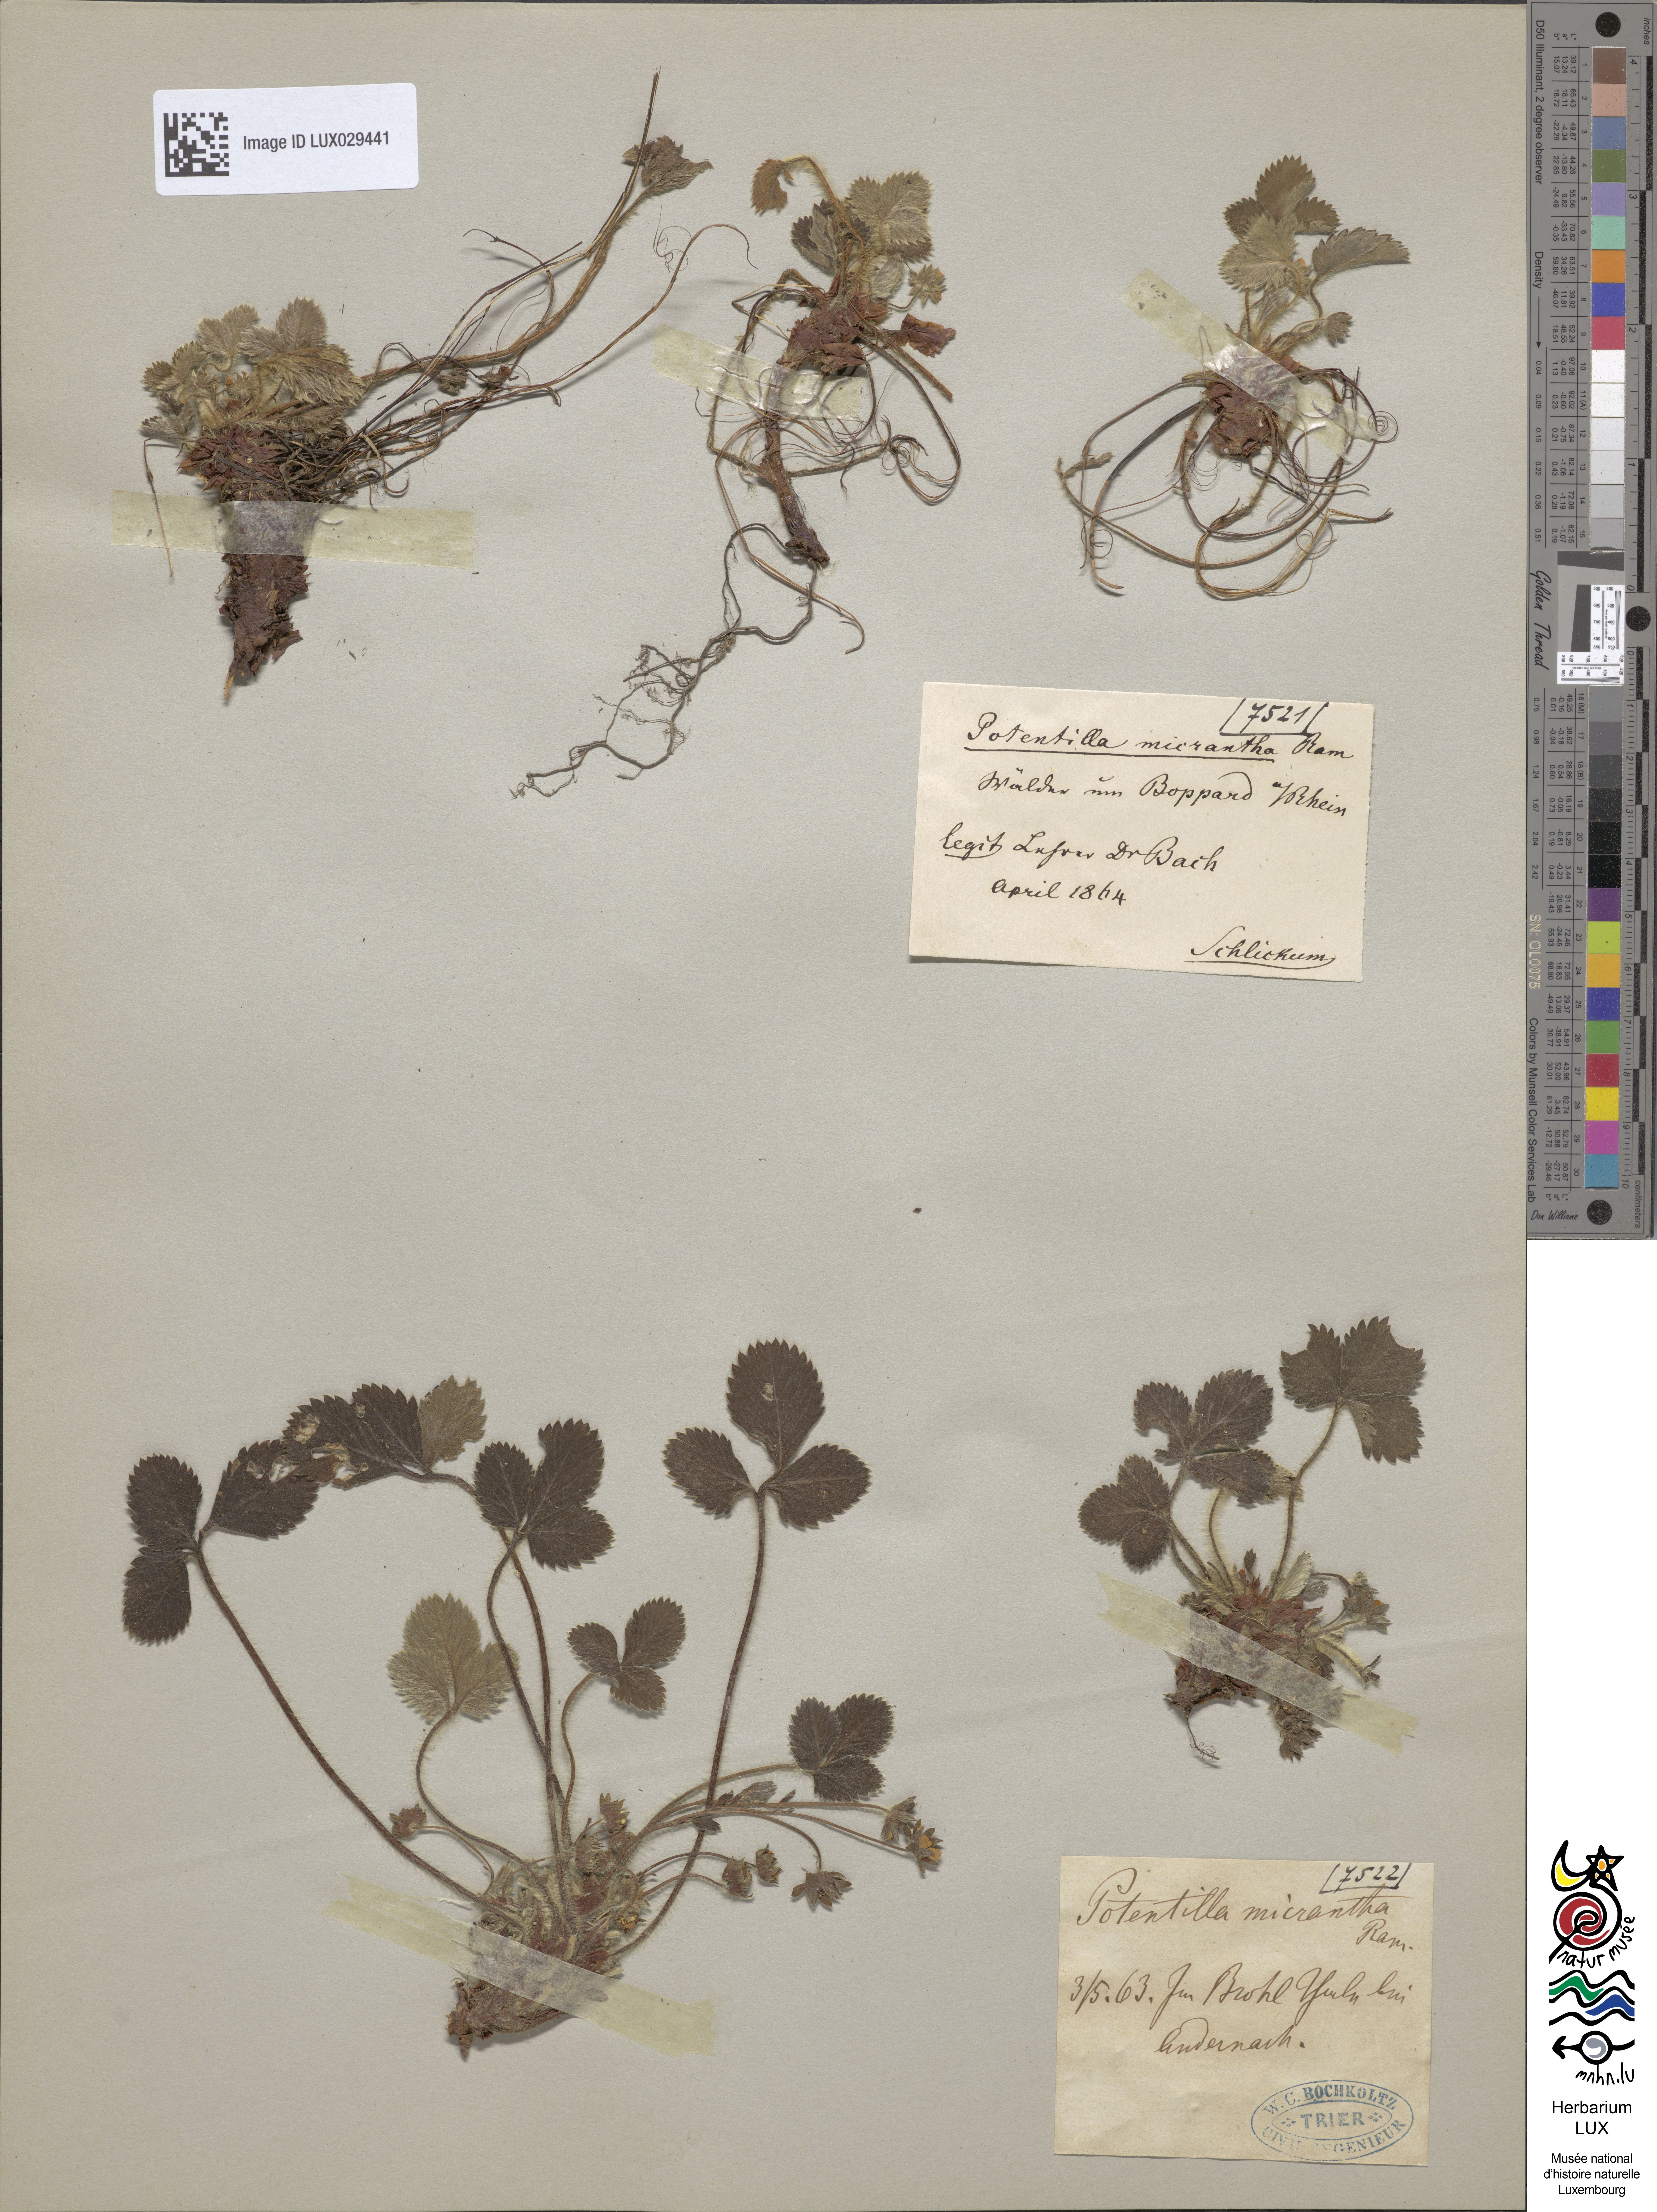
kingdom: Plantae
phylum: Tracheophyta
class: Magnoliopsida
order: Rosales
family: Rosaceae
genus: Potentilla
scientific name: Potentilla micrantha
